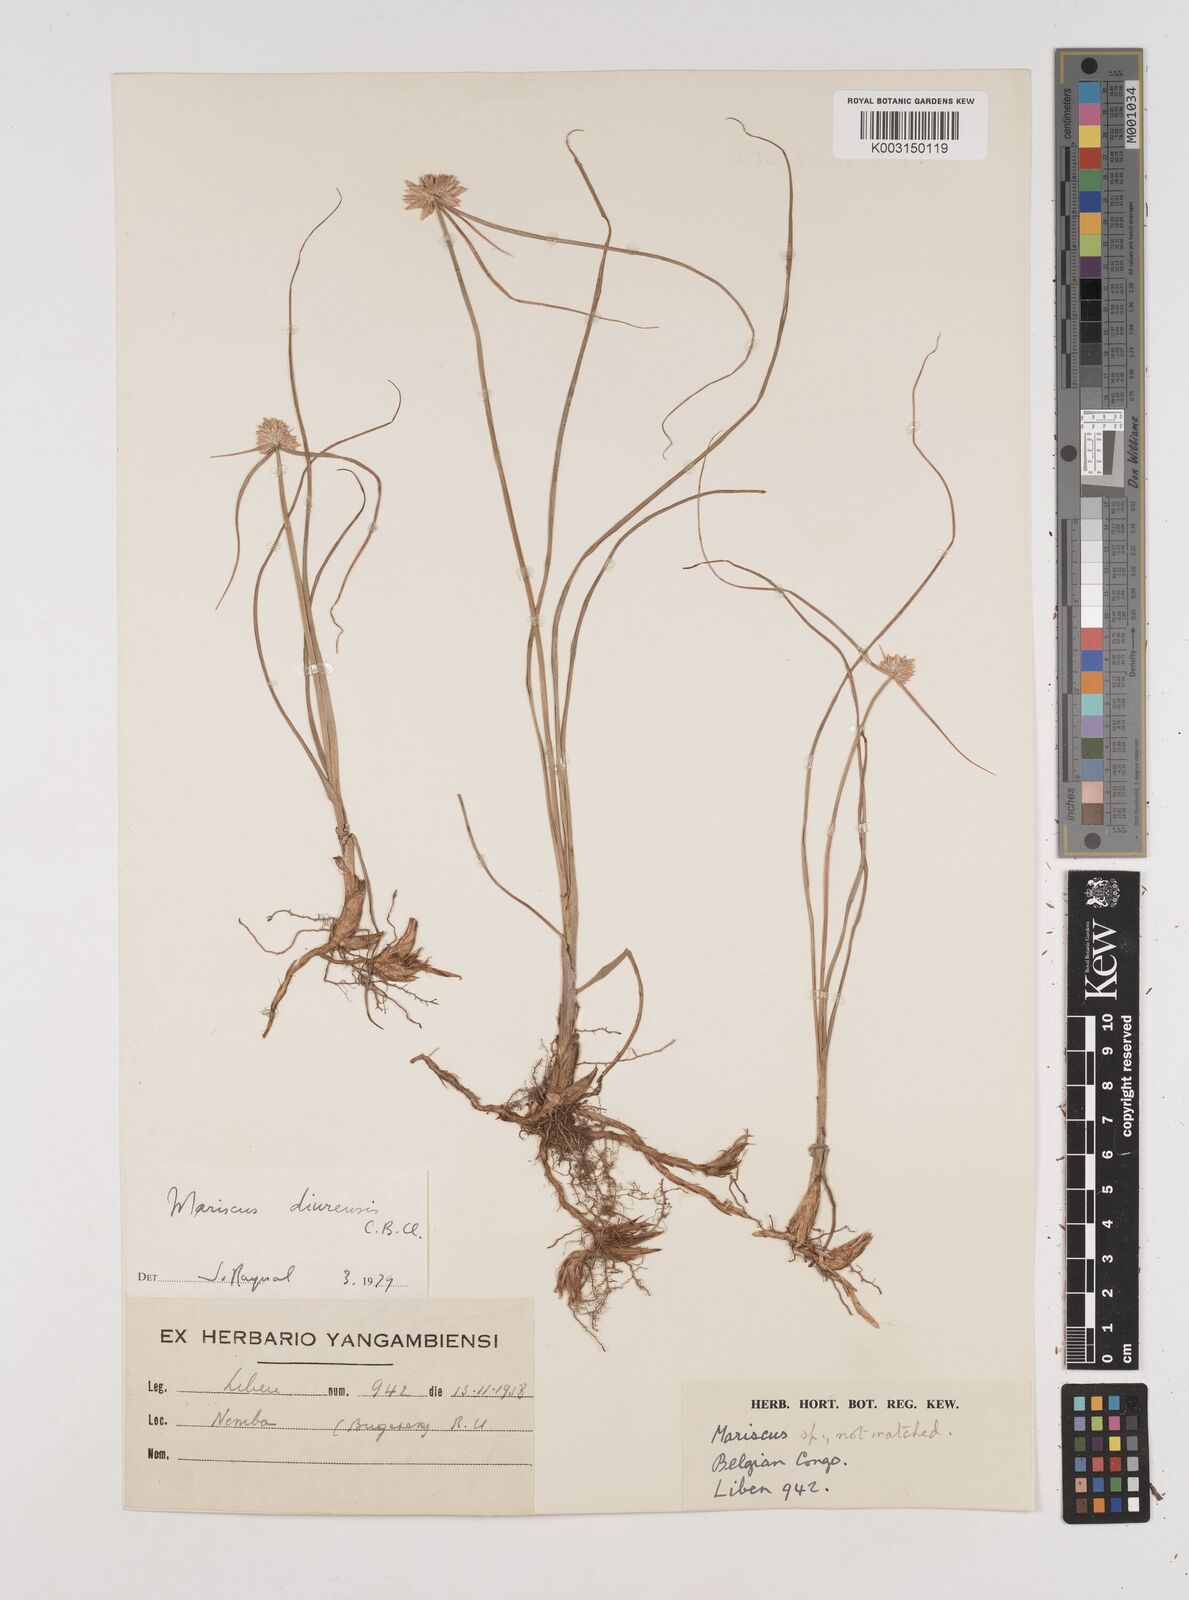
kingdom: Plantae
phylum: Tracheophyta
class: Liliopsida
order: Poales
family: Cyperaceae
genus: Cyperus
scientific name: Cyperus diurensis
